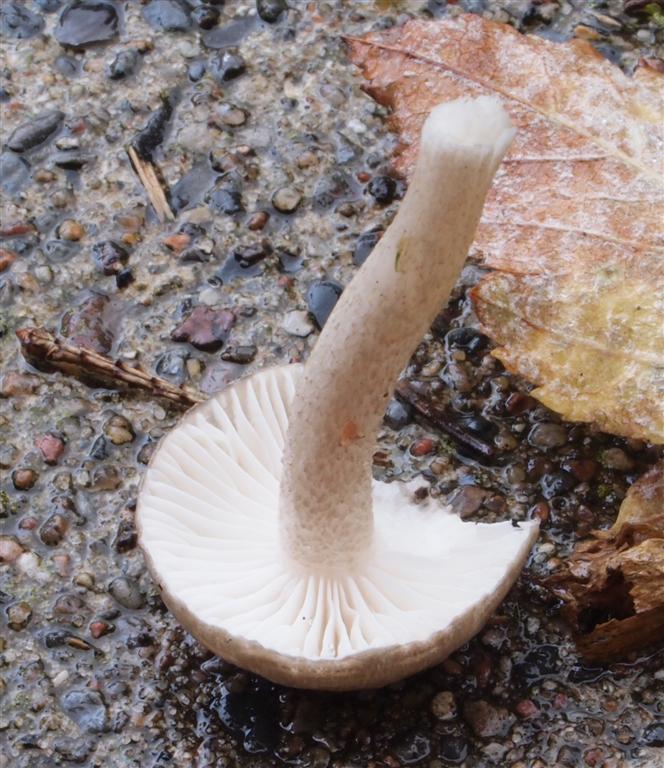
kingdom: Fungi
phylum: Basidiomycota
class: Agaricomycetes
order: Agaricales
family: Hygrophoraceae
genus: Hygrophorus
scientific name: Hygrophorus pustulatus
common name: mørkprikket sneglehat
